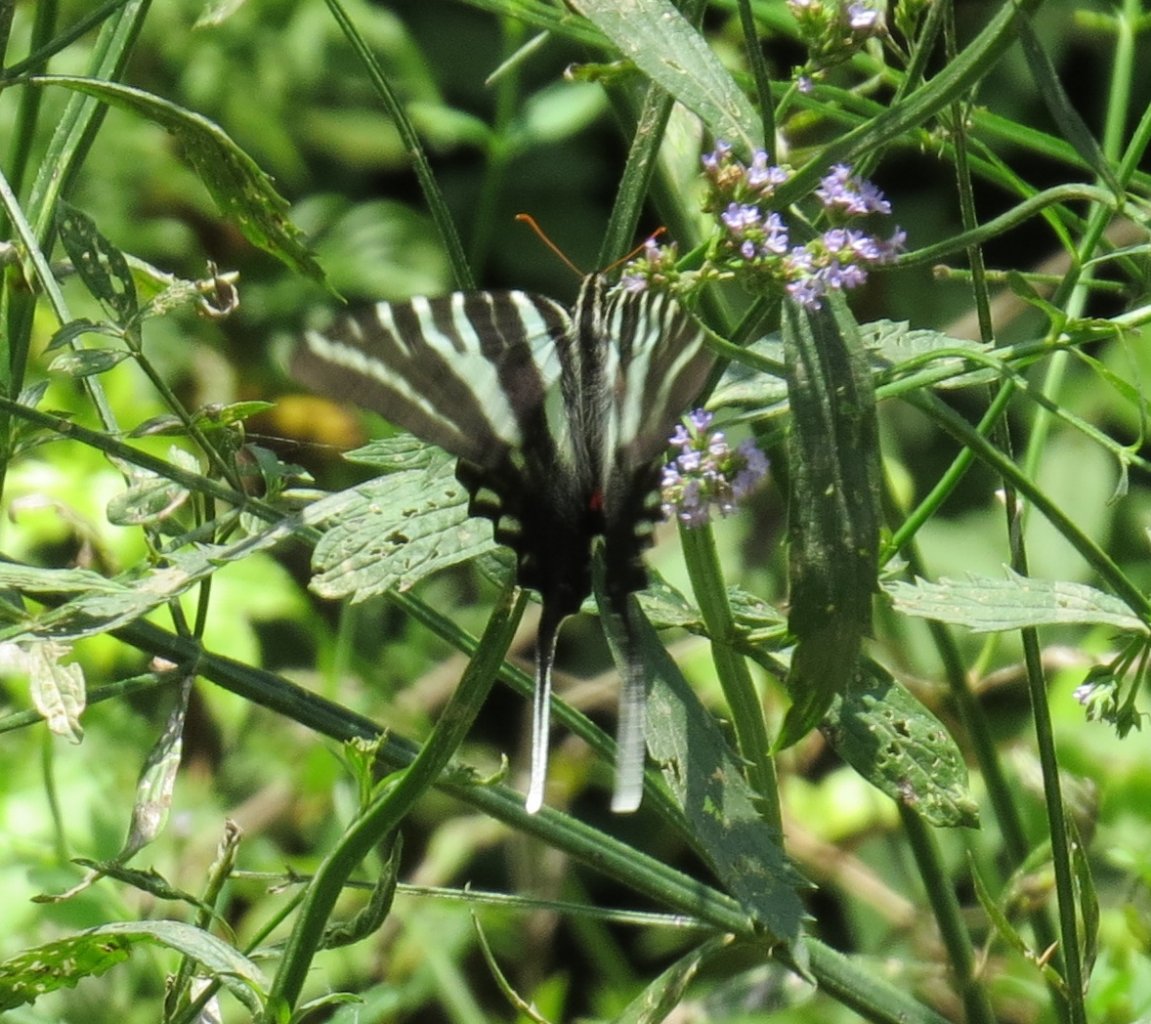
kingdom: Animalia
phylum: Arthropoda
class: Insecta
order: Lepidoptera
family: Papilionidae
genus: Protographium
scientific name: Protographium marcellus
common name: Zebra Swallowtail
